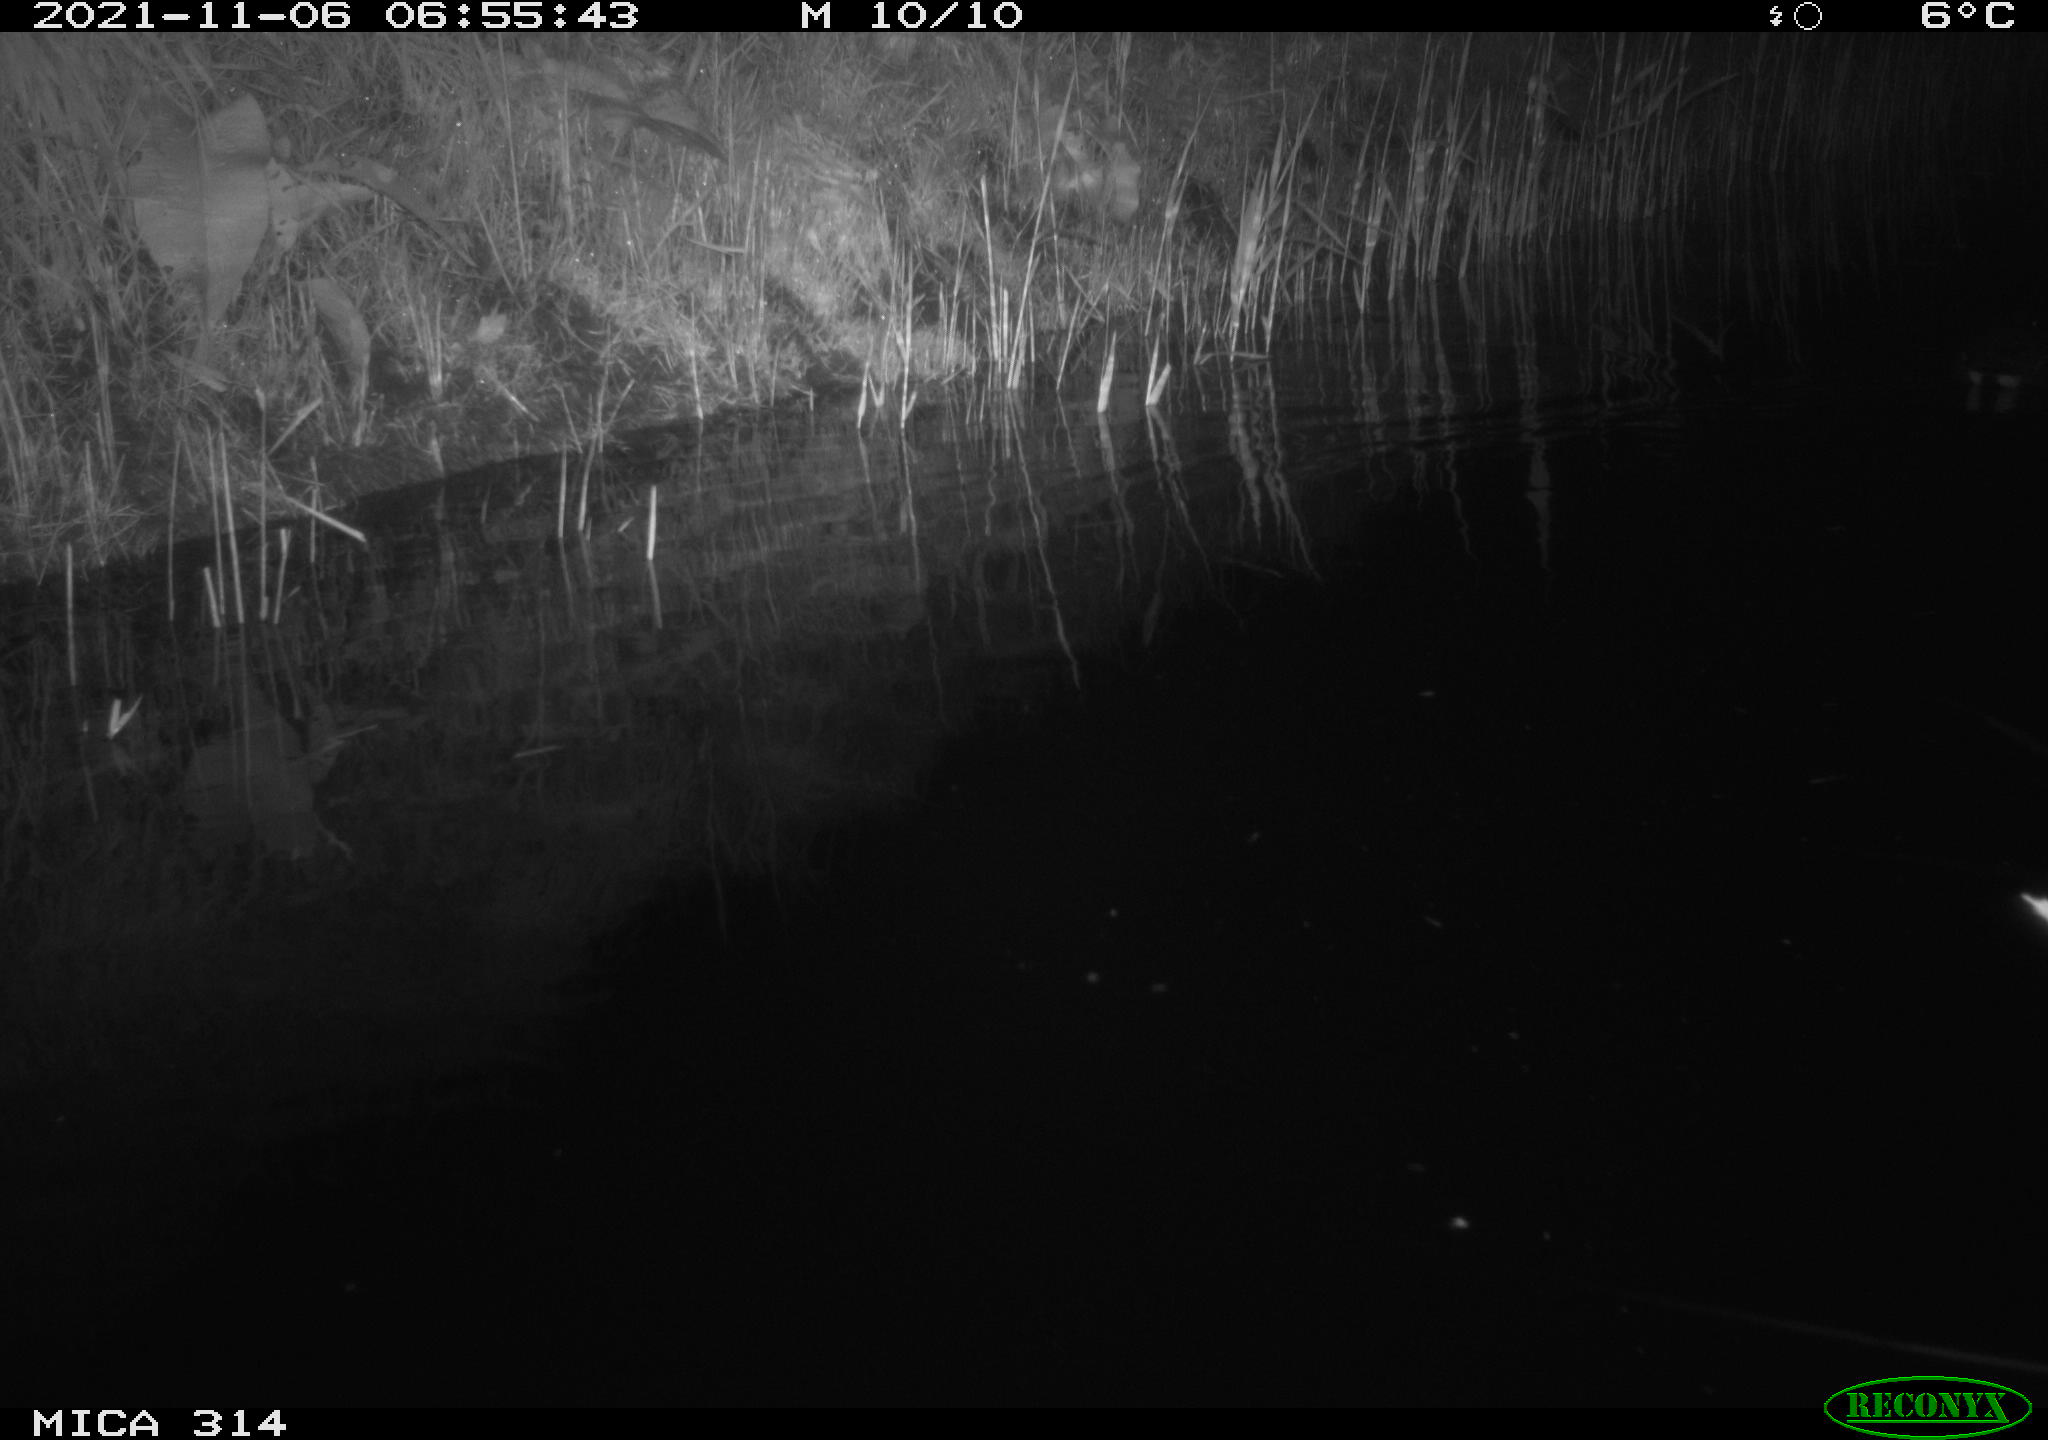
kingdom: Animalia
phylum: Chordata
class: Aves
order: Gruiformes
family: Rallidae
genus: Gallinula
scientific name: Gallinula chloropus
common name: Common moorhen
